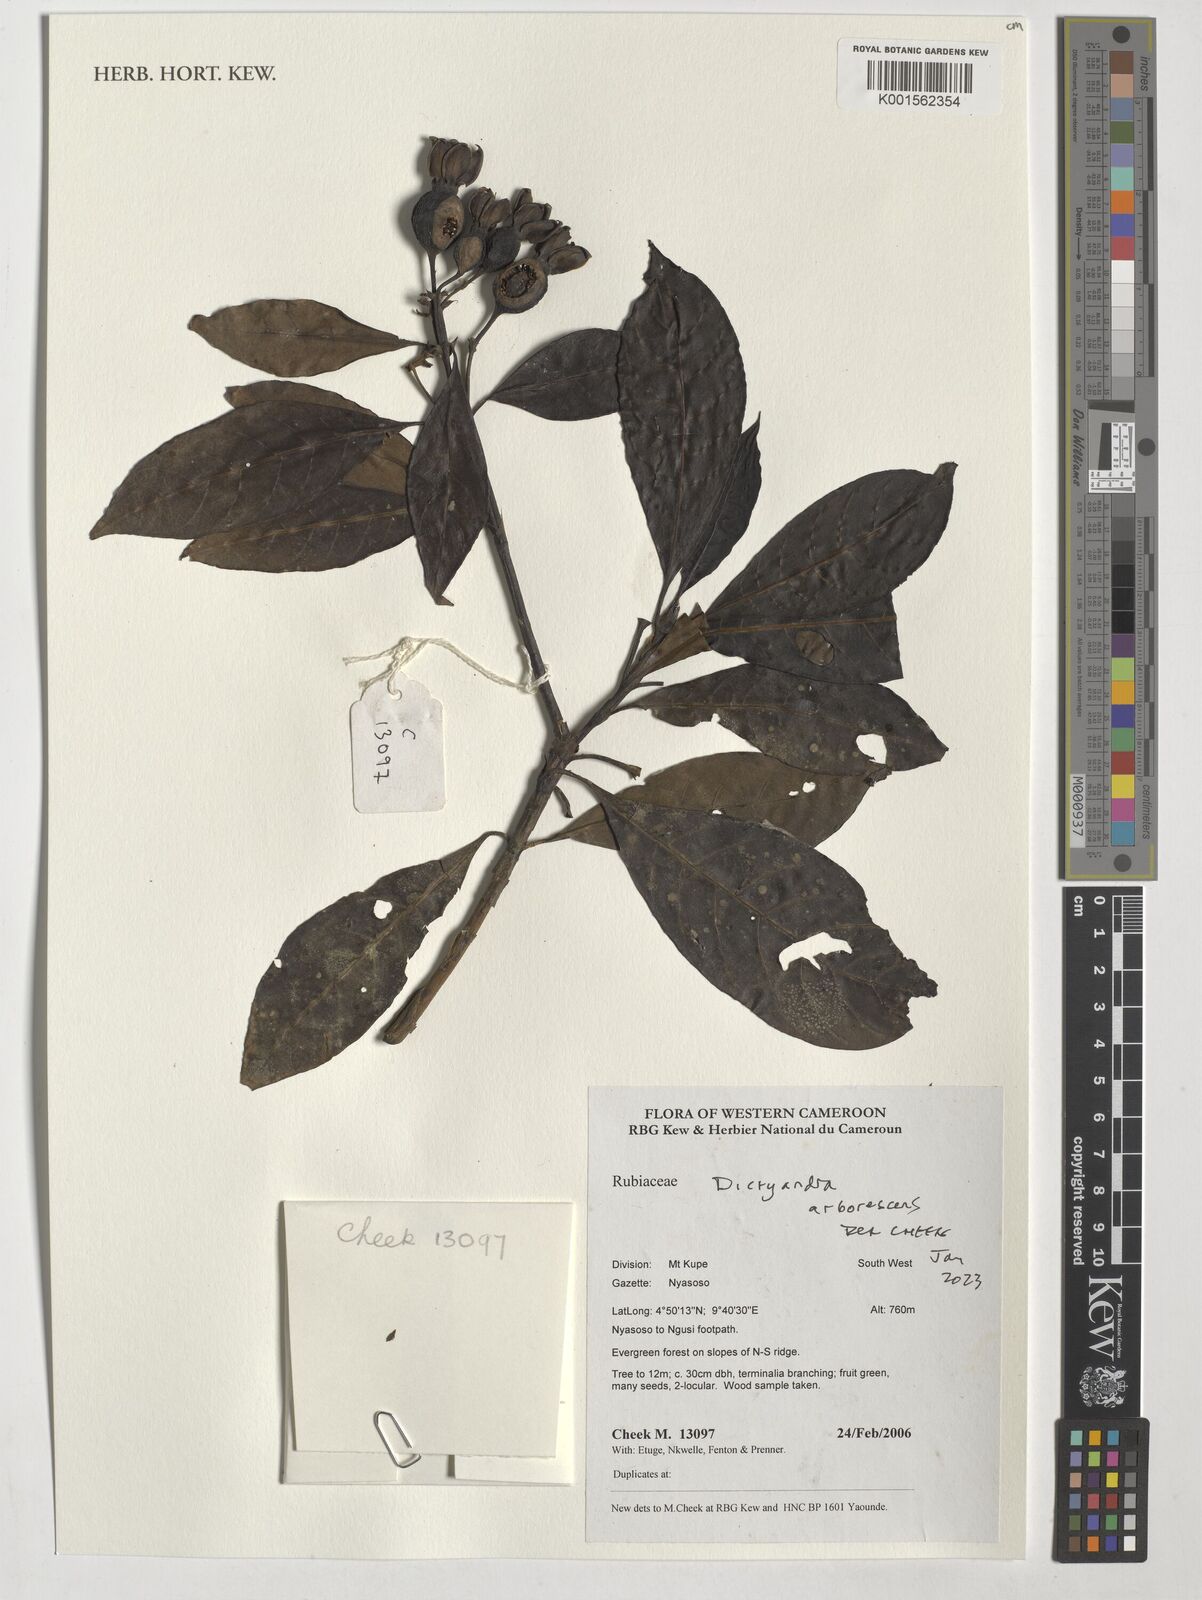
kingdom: Plantae
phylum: Tracheophyta
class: Magnoliopsida
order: Gentianales
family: Rubiaceae
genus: Leptactina
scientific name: Leptactina arborescens
